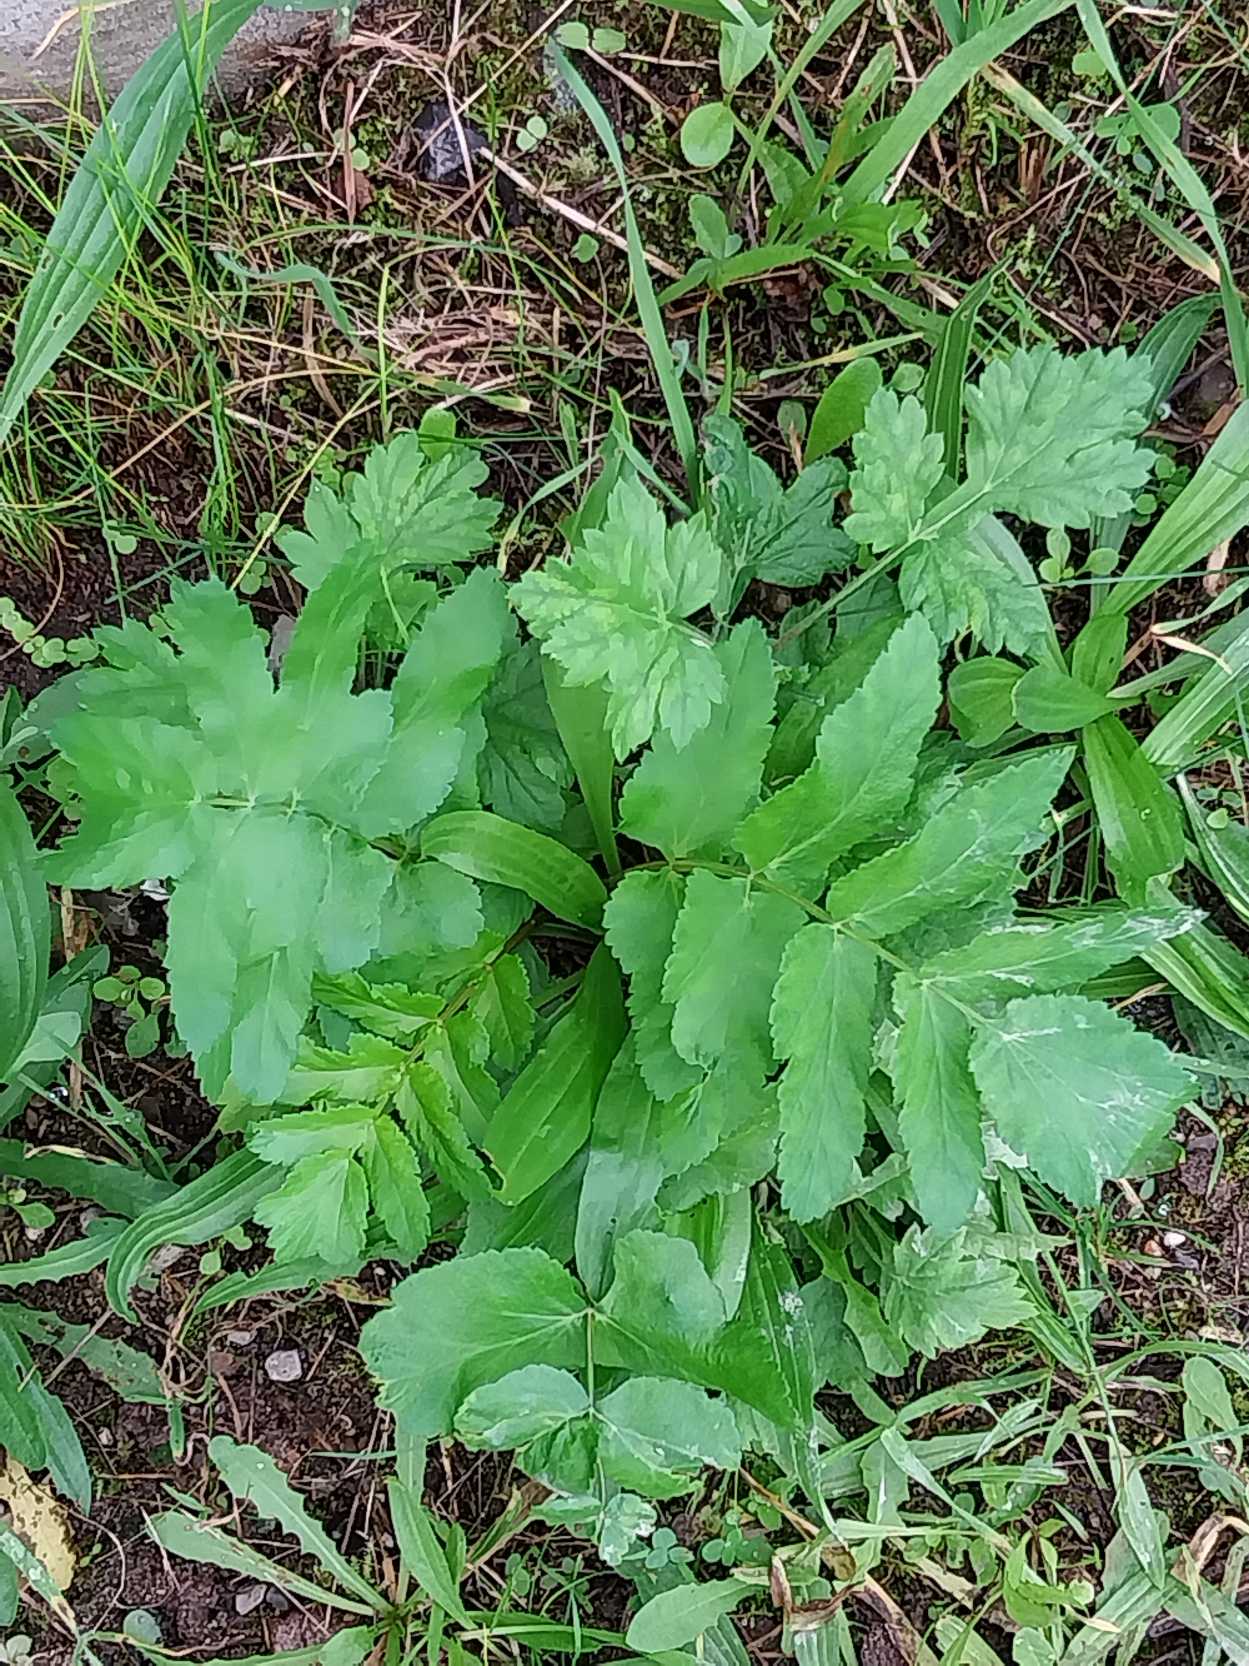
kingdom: Plantae
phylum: Tracheophyta
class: Magnoliopsida
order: Apiales
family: Apiaceae
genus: Pastinaca
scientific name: Pastinaca sativa
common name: Pastinak
